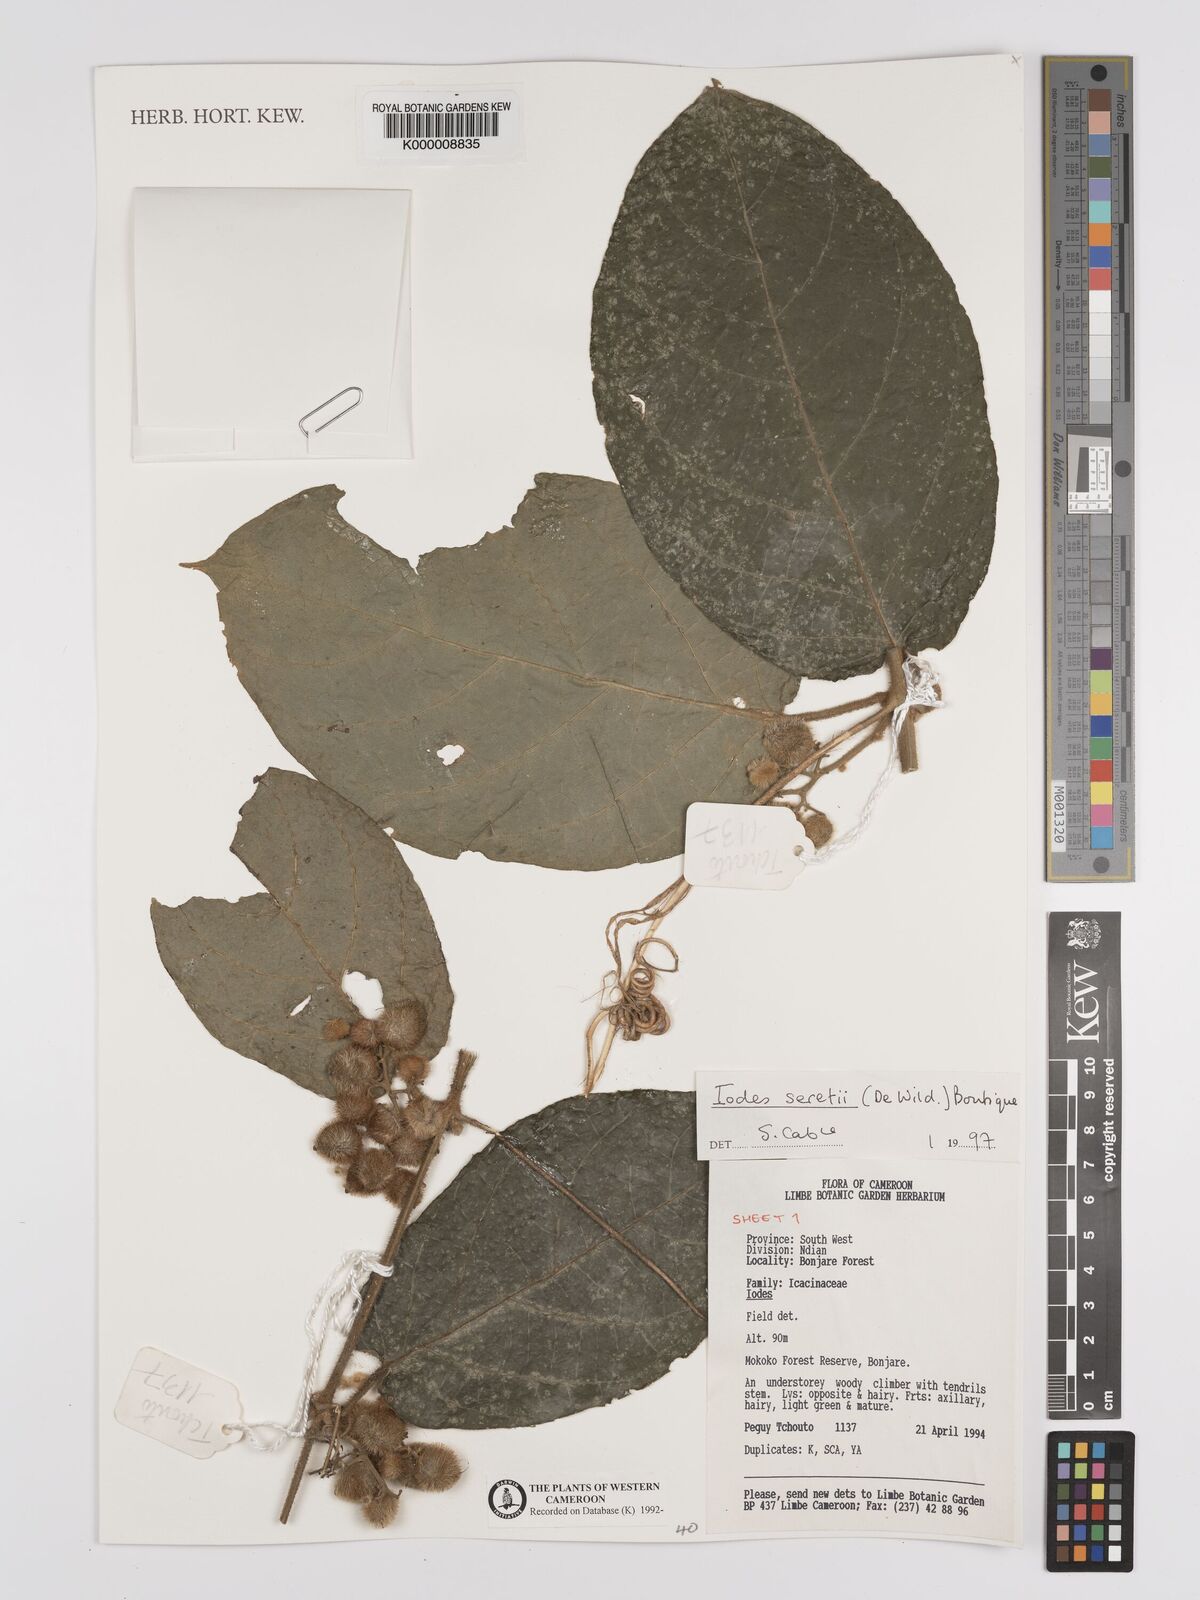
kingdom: Plantae
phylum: Tracheophyta
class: Magnoliopsida
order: Icacinales
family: Icacinaceae
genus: Iodes
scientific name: Iodes seretii
